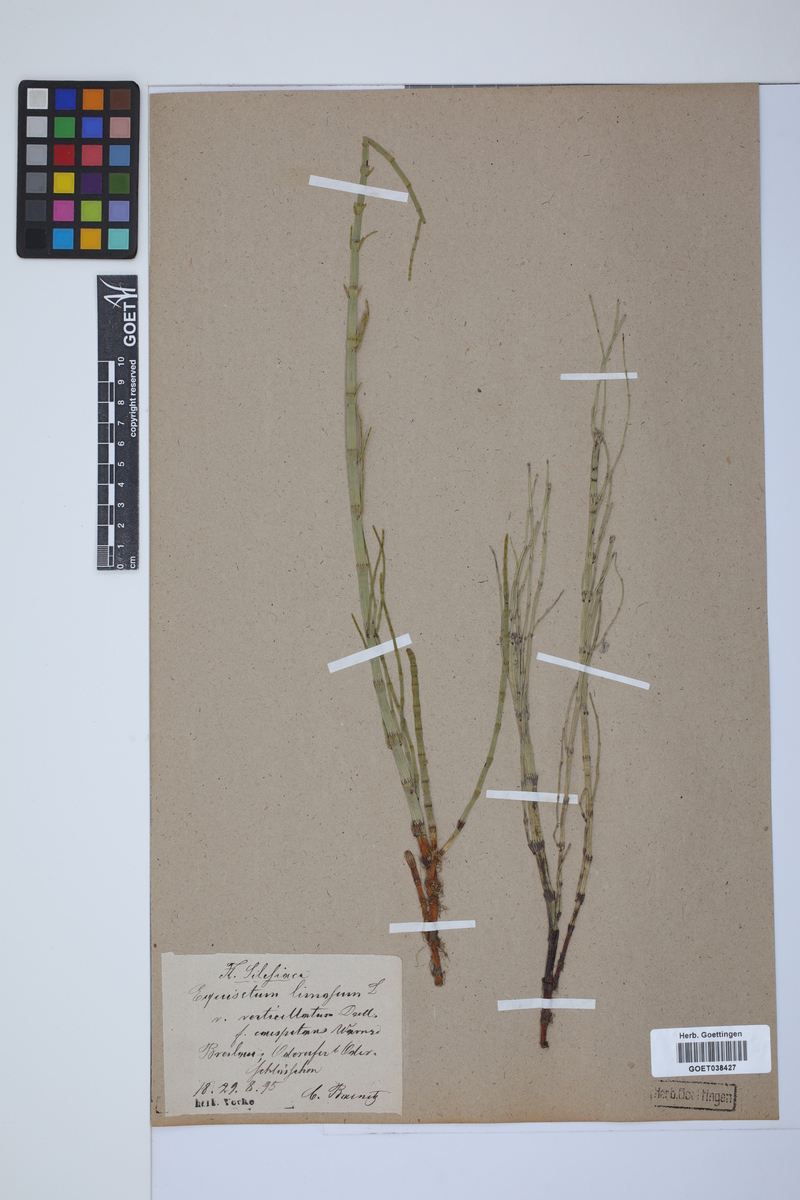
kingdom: Plantae
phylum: Tracheophyta
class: Polypodiopsida
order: Equisetales
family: Equisetaceae
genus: Equisetum
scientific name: Equisetum fluviatile
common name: Water horsetail
